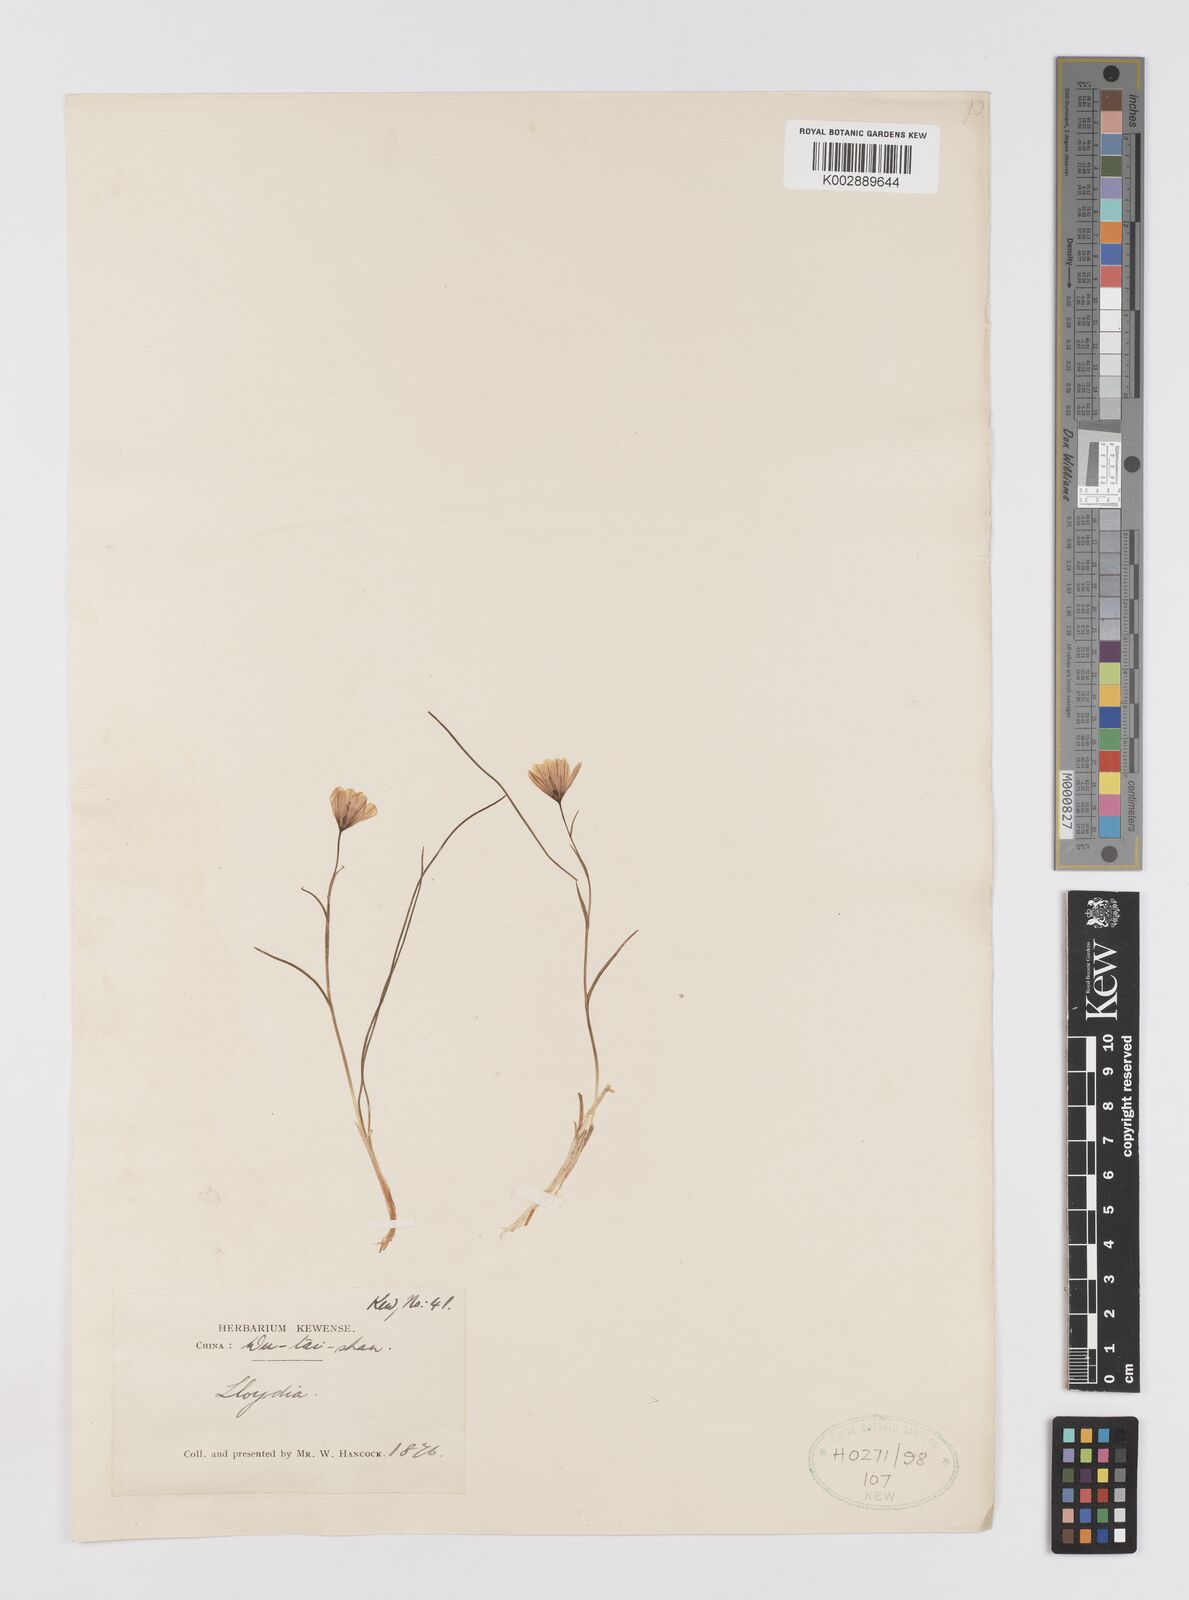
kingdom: Plantae
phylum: Tracheophyta
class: Liliopsida
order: Liliales
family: Liliaceae
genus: Gagea
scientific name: Gagea
